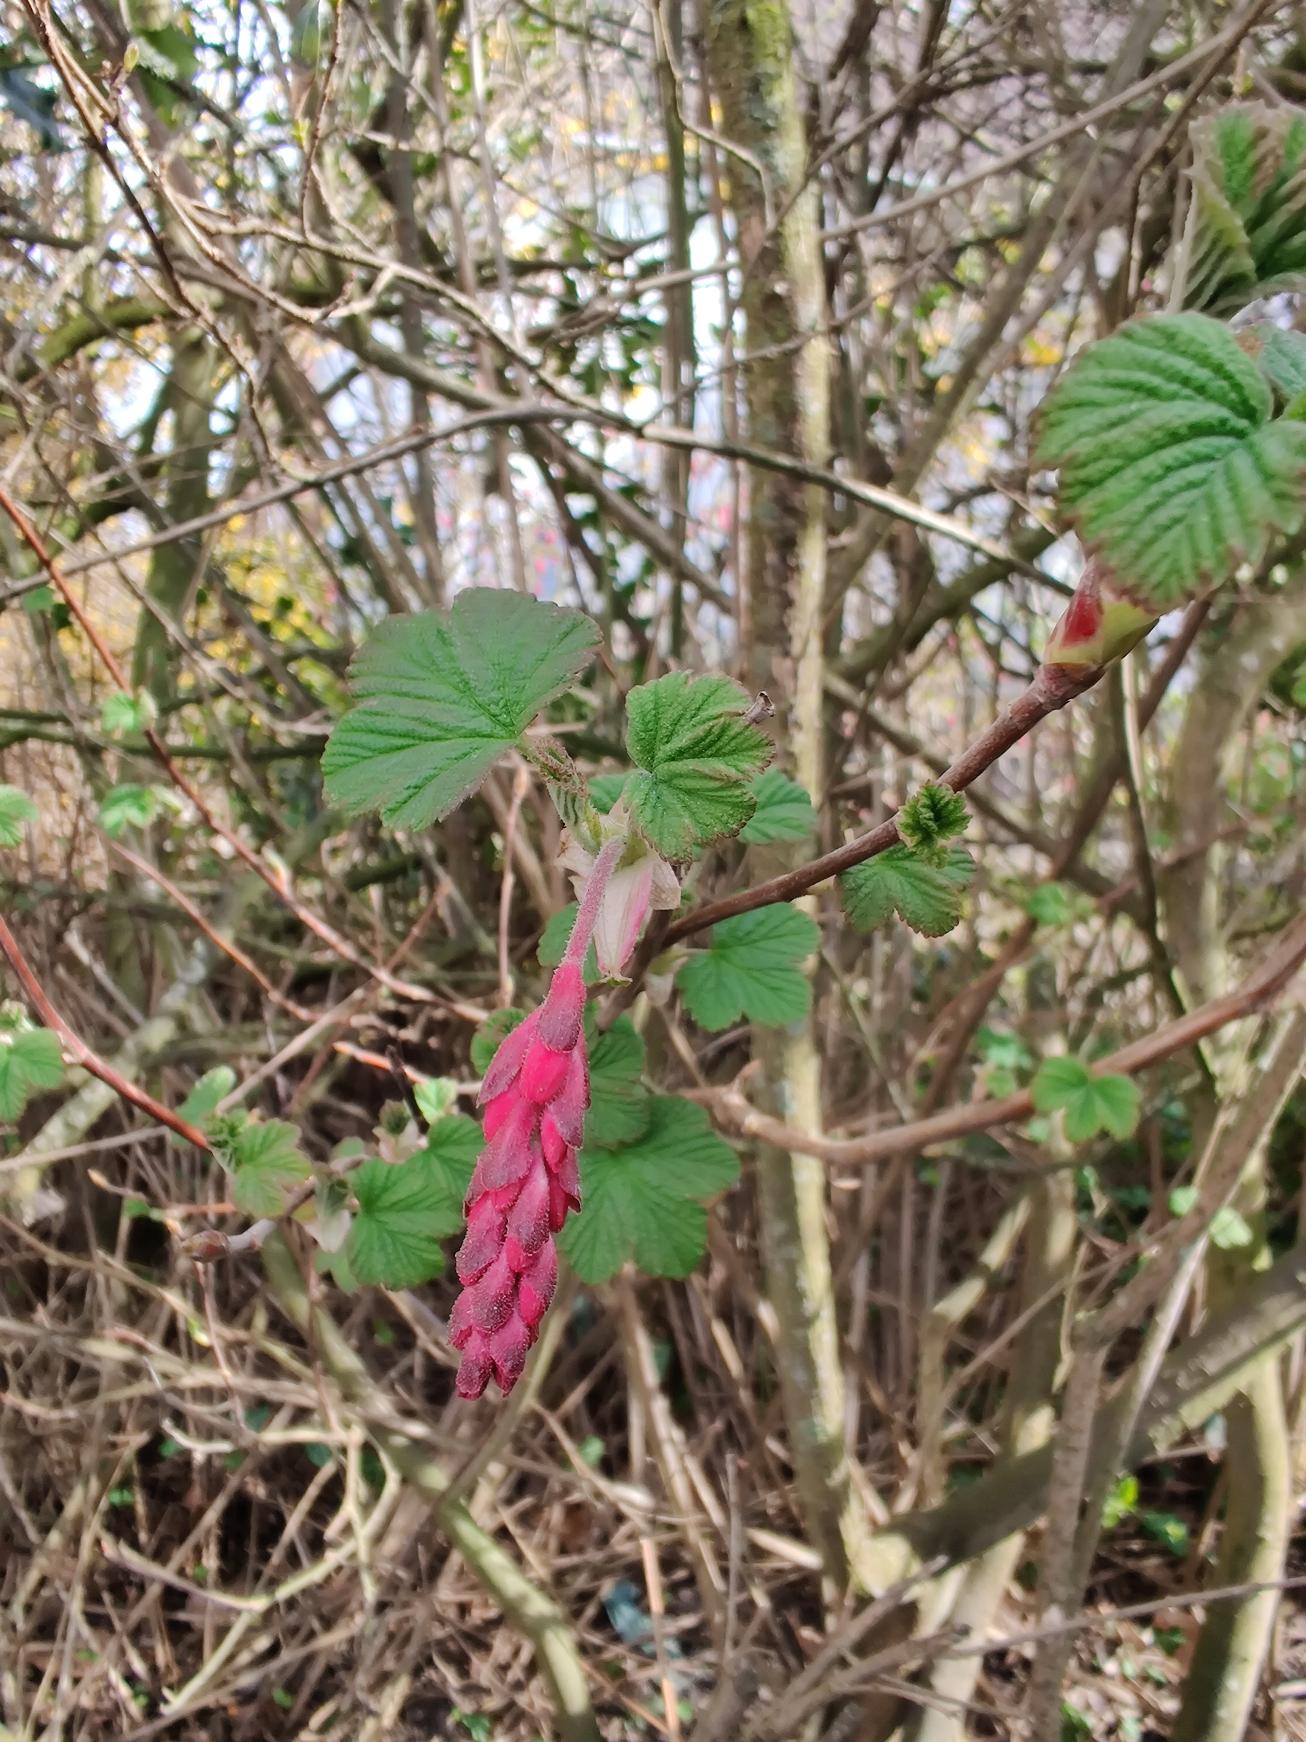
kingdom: Plantae
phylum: Tracheophyta
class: Magnoliopsida
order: Saxifragales
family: Grossulariaceae
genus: Ribes
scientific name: Ribes sanguineum
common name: Blod-ribs
